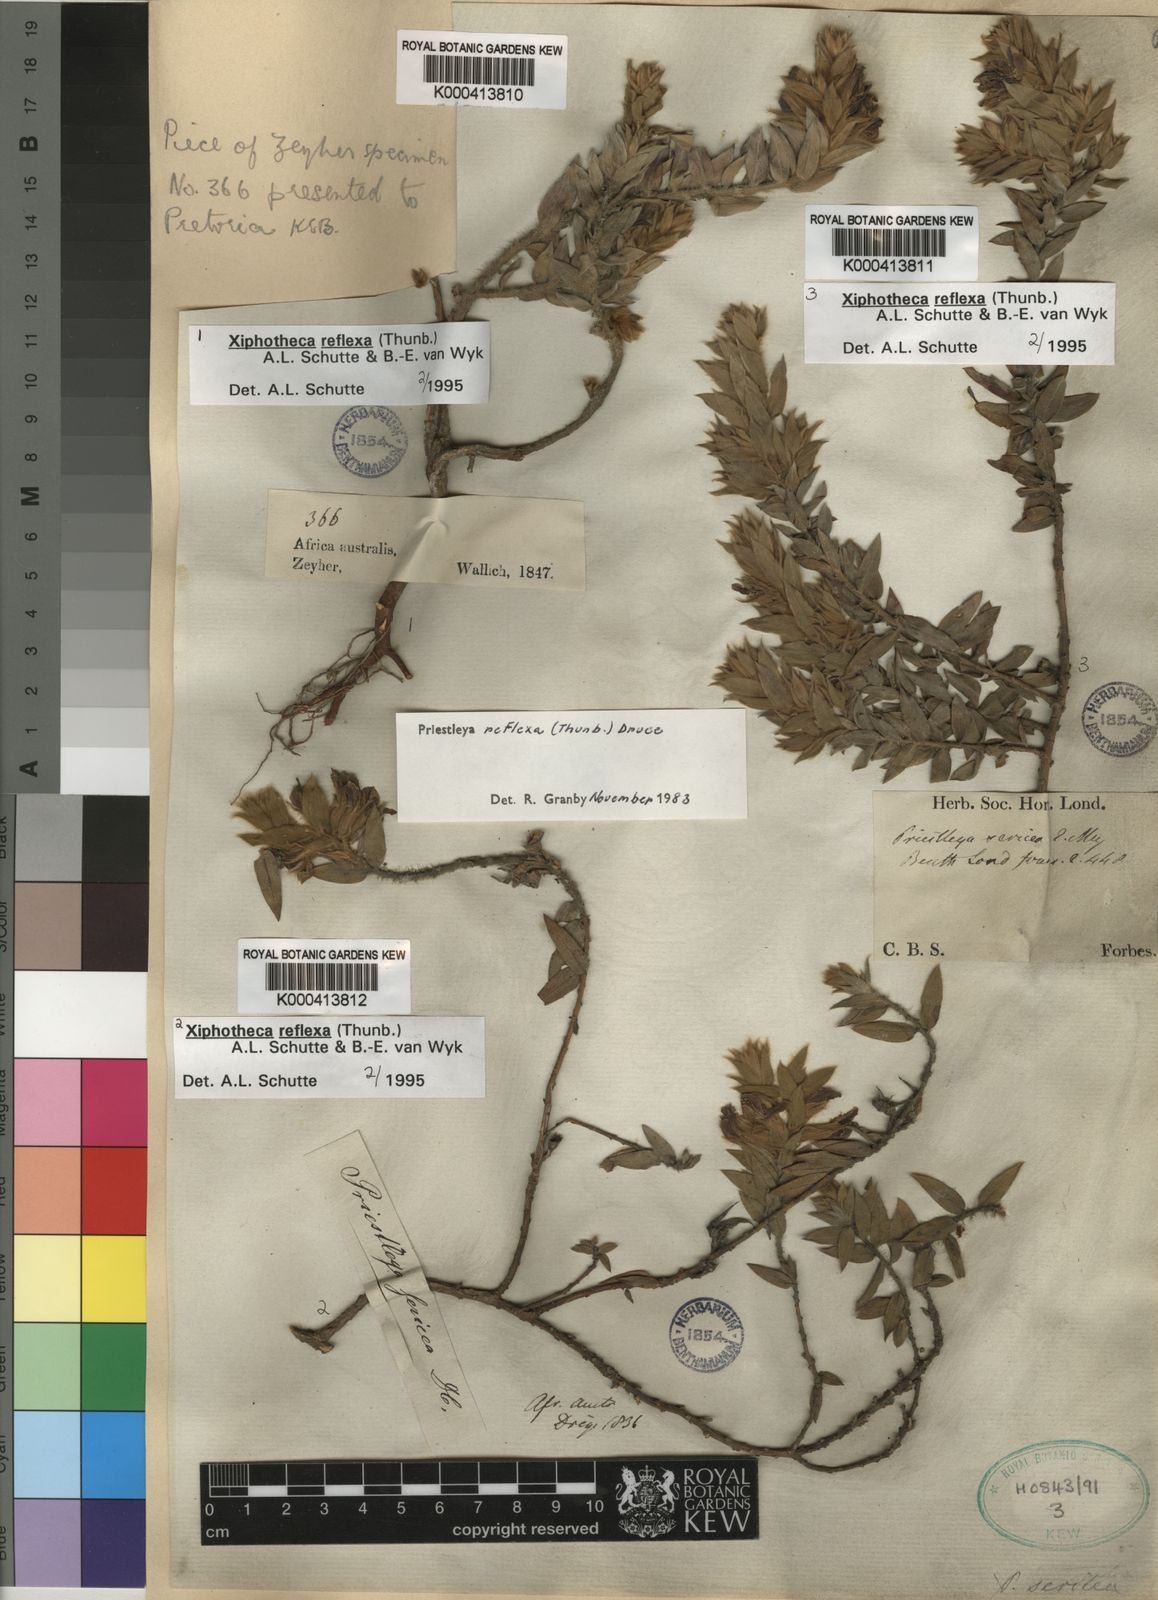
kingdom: Plantae
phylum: Tracheophyta
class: Magnoliopsida
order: Fabales
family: Fabaceae
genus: Xiphotheca
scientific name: Xiphotheca reflexa
